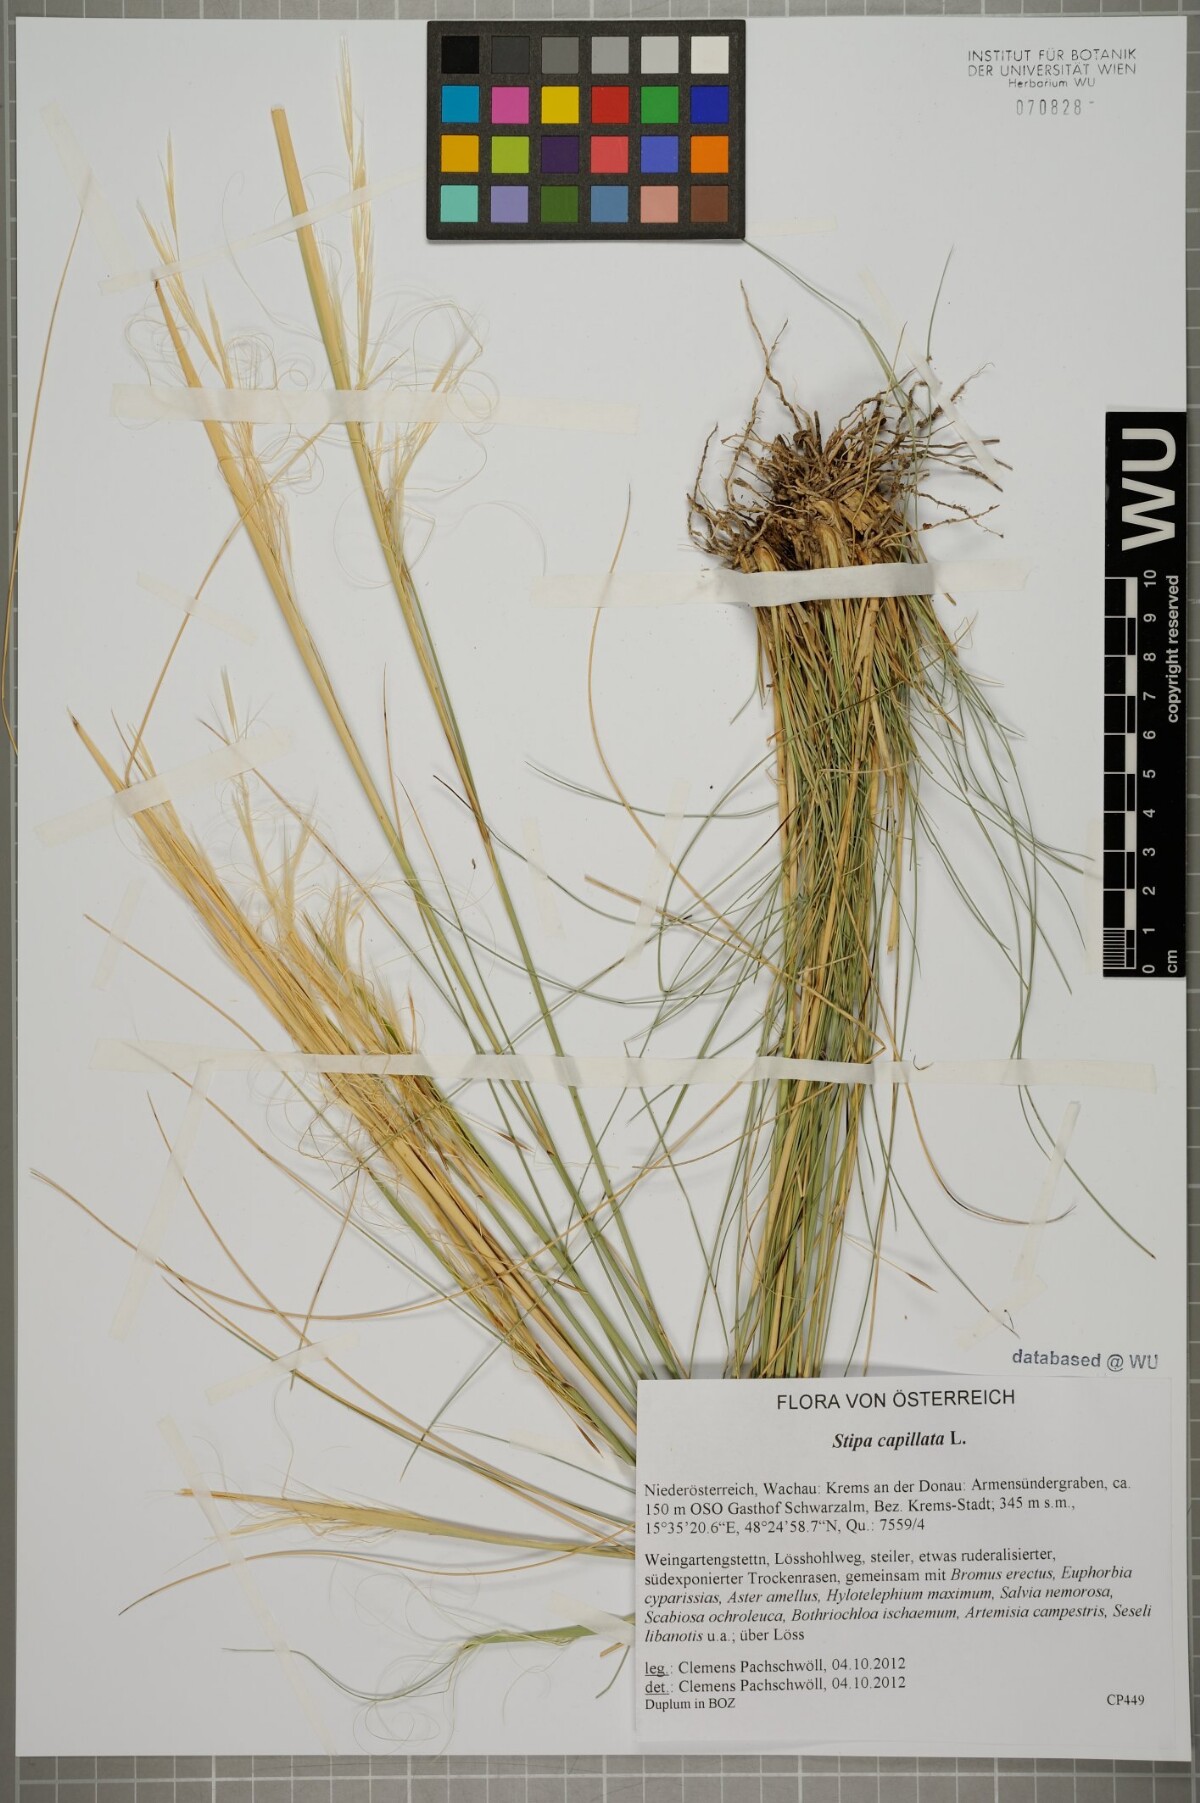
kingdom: Plantae
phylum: Tracheophyta
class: Liliopsida
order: Poales
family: Poaceae
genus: Stipa
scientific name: Stipa capillata
